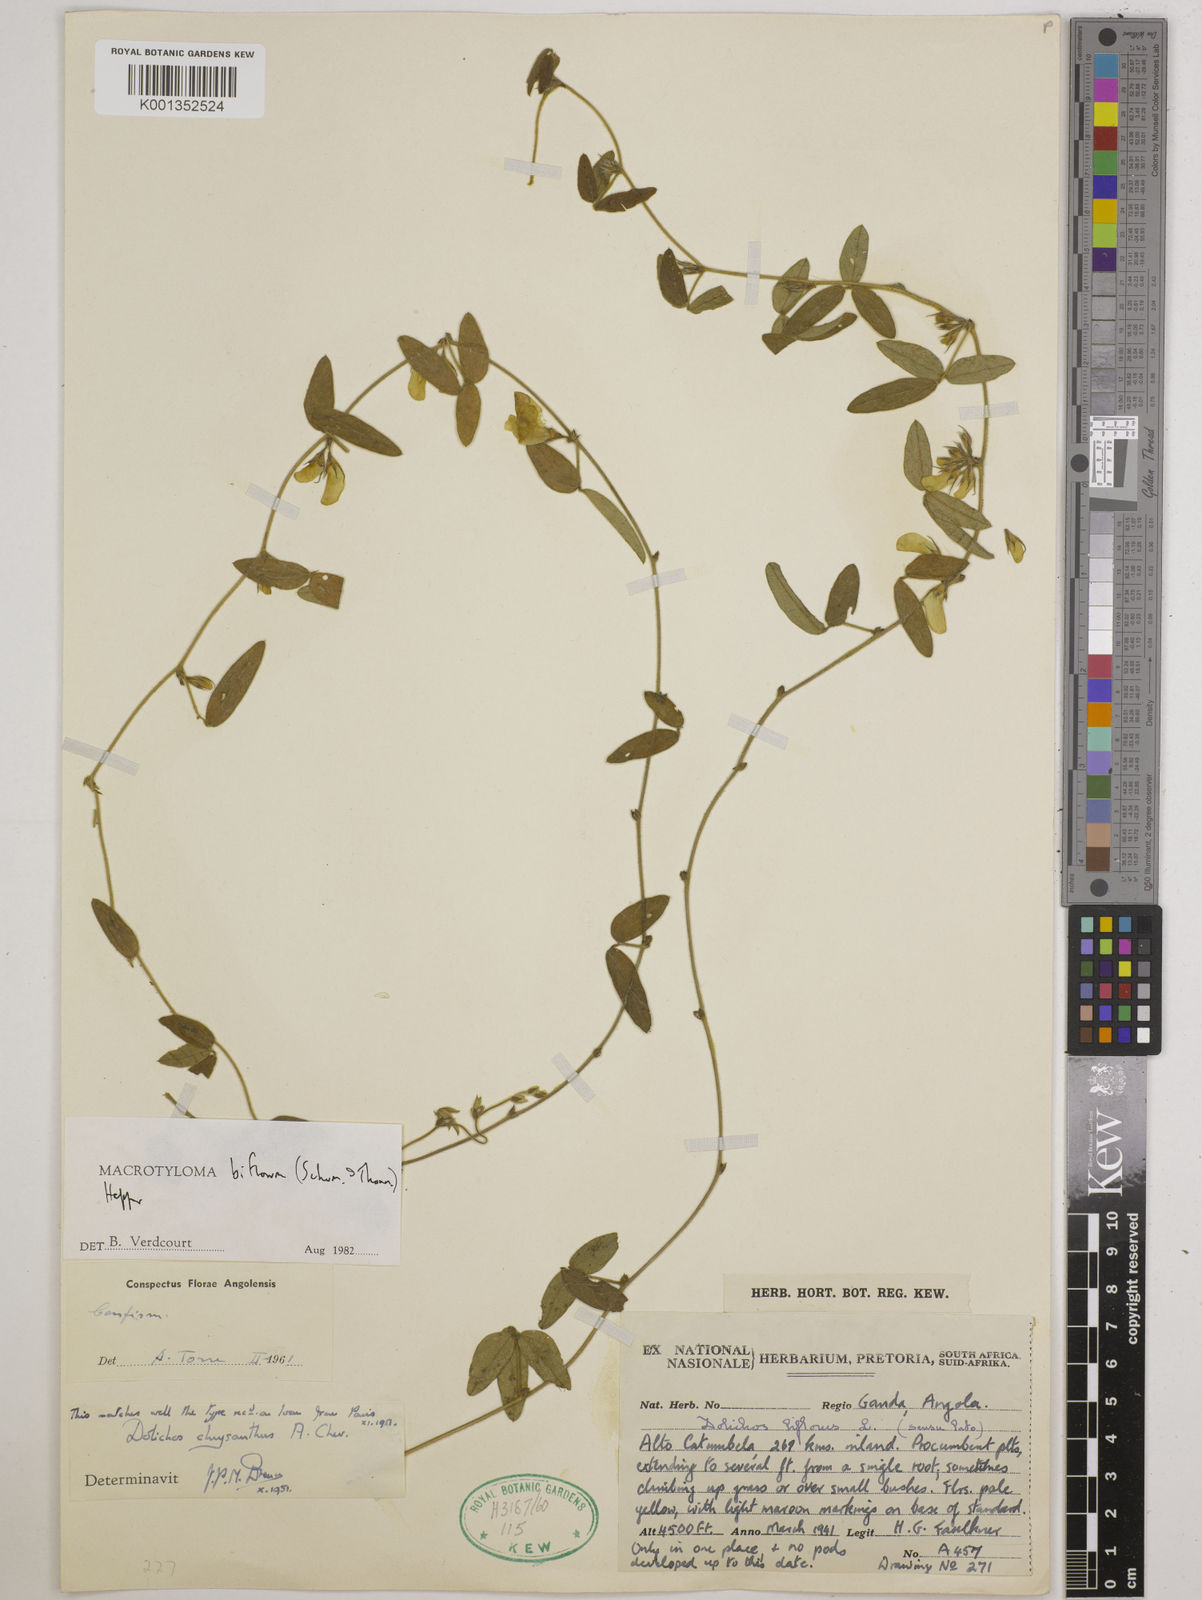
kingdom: Plantae
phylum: Tracheophyta
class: Magnoliopsida
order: Fabales
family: Fabaceae
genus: Macrotyloma
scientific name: Macrotyloma biflorum
